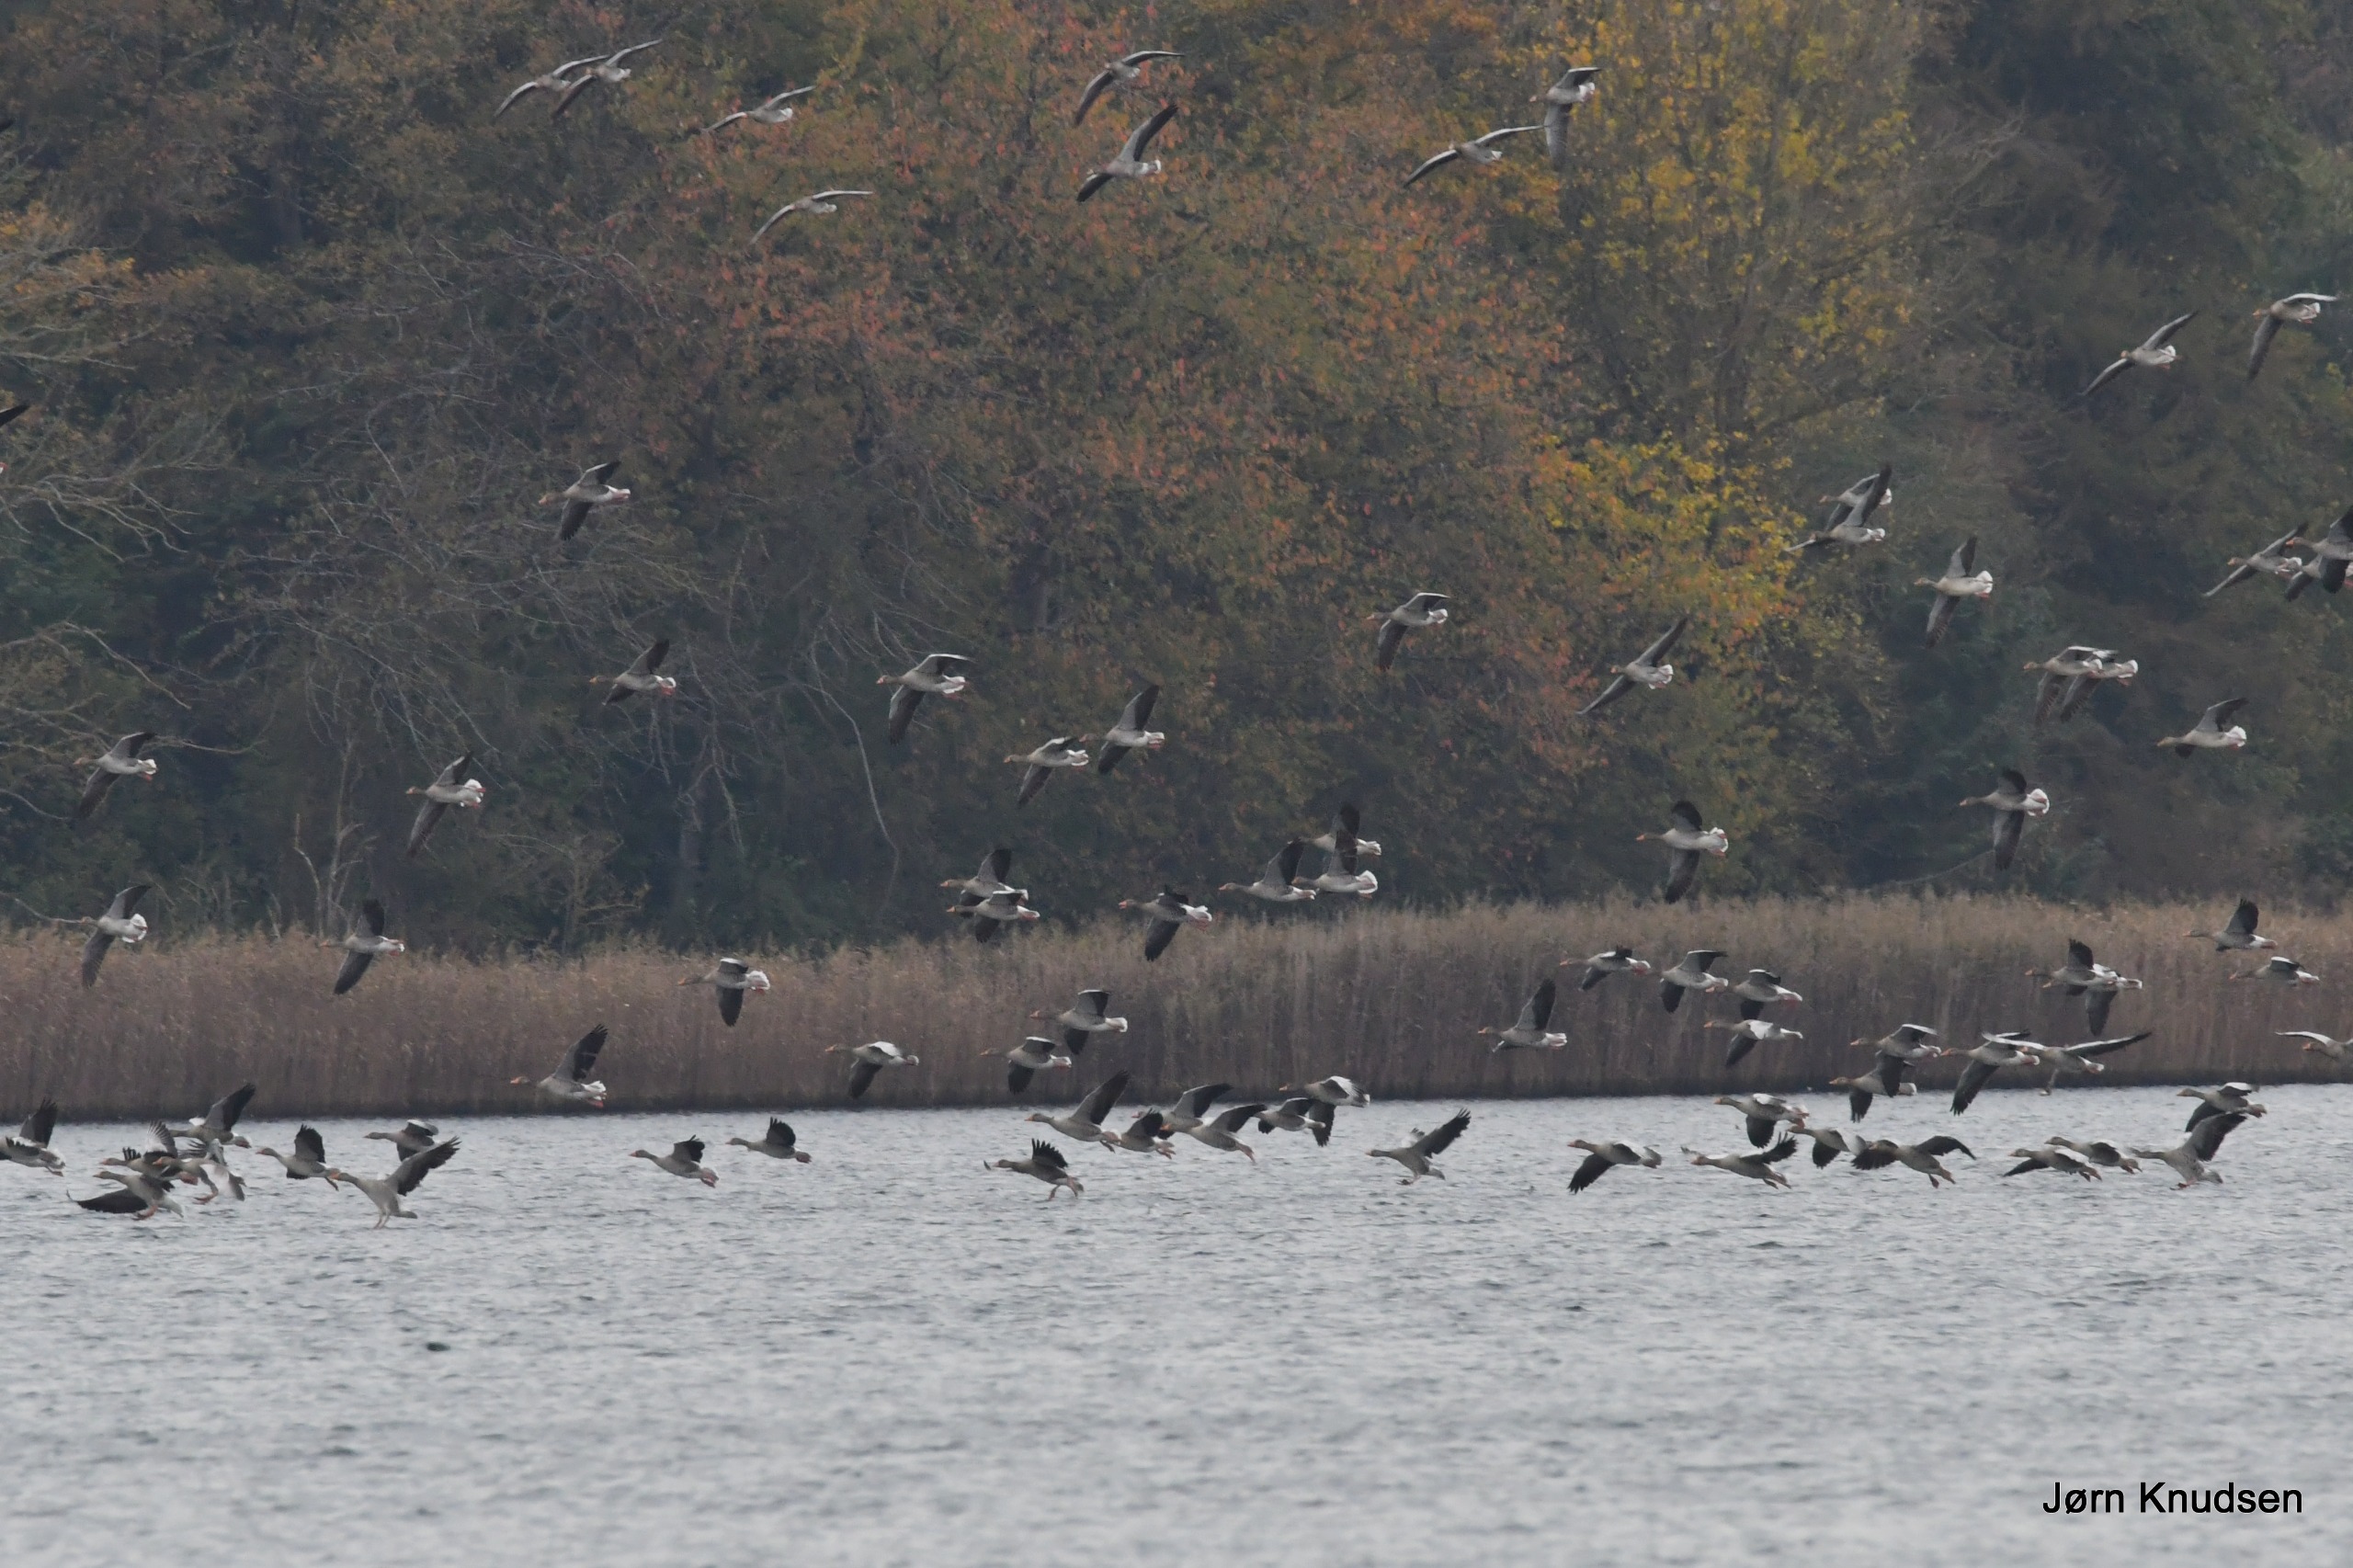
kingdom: Animalia
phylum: Chordata
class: Aves
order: Anseriformes
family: Anatidae
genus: Anser
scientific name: Anser anser
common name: Grågås
